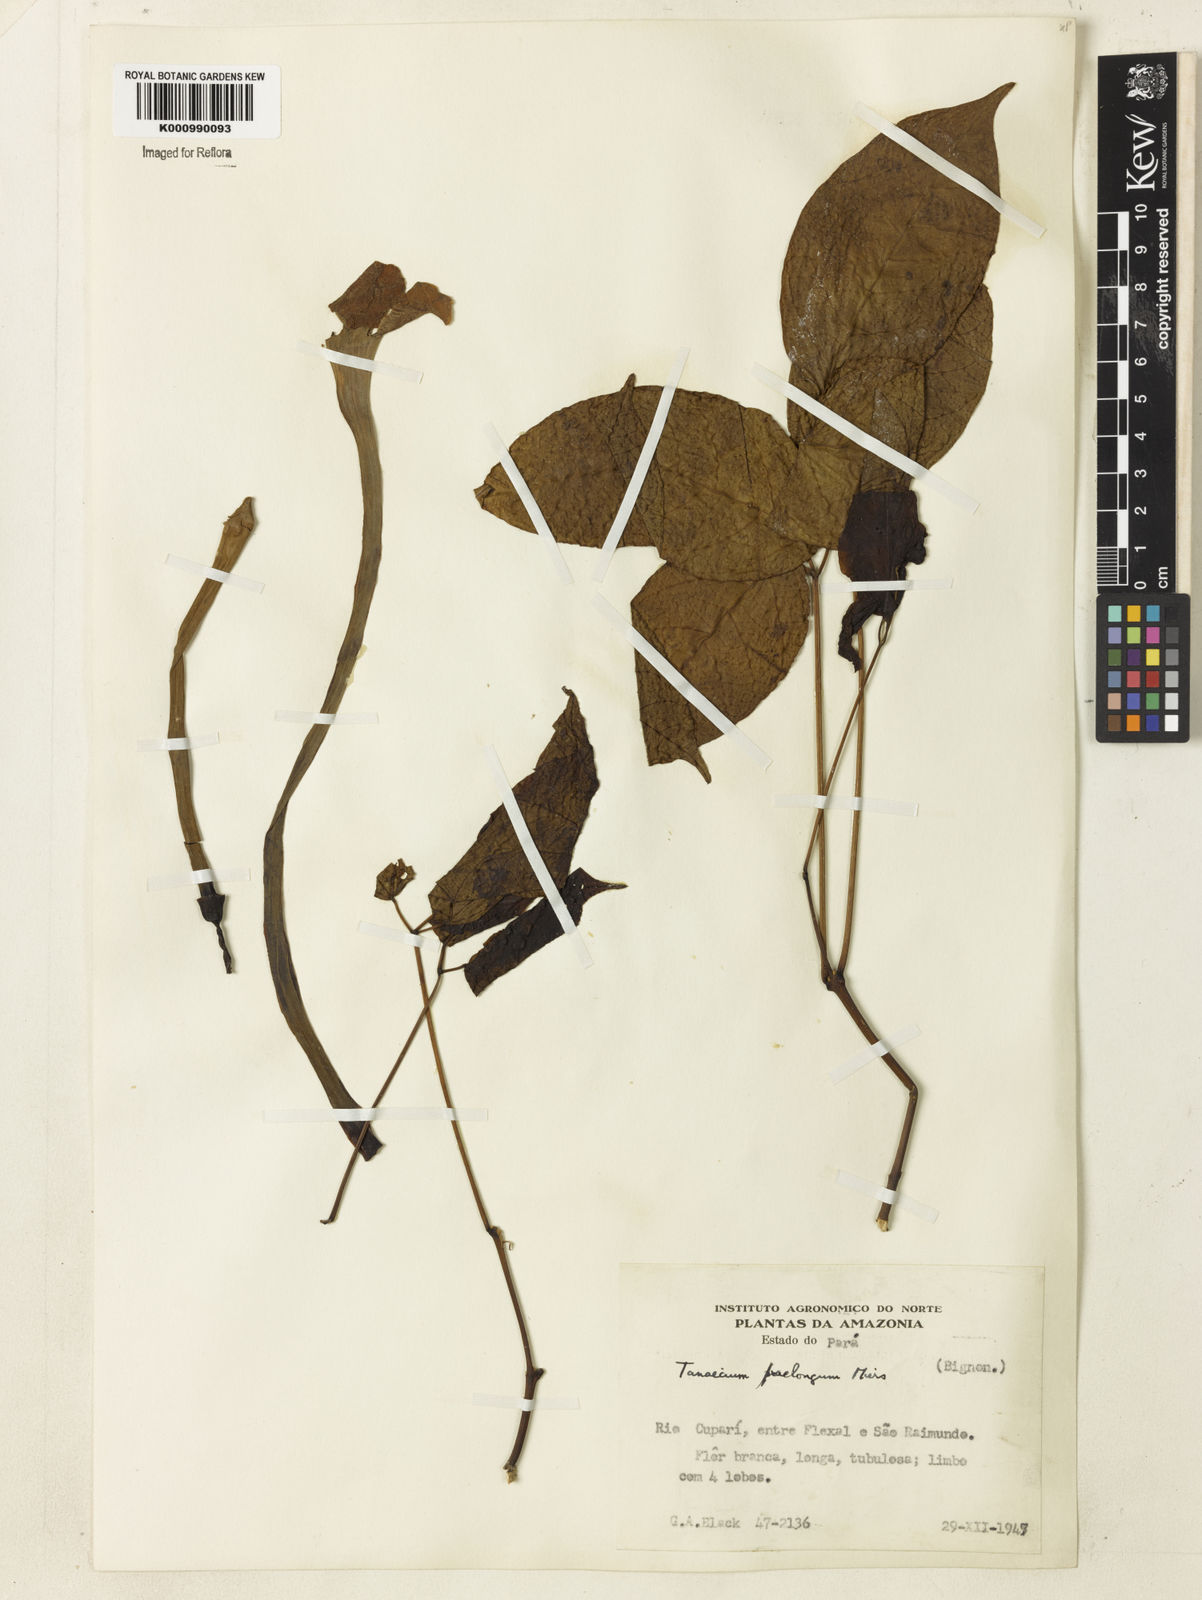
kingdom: Plantae
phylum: Tracheophyta
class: Magnoliopsida
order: Lamiales
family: Bignoniaceae
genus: Tanaecium
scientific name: Tanaecium jaroba
